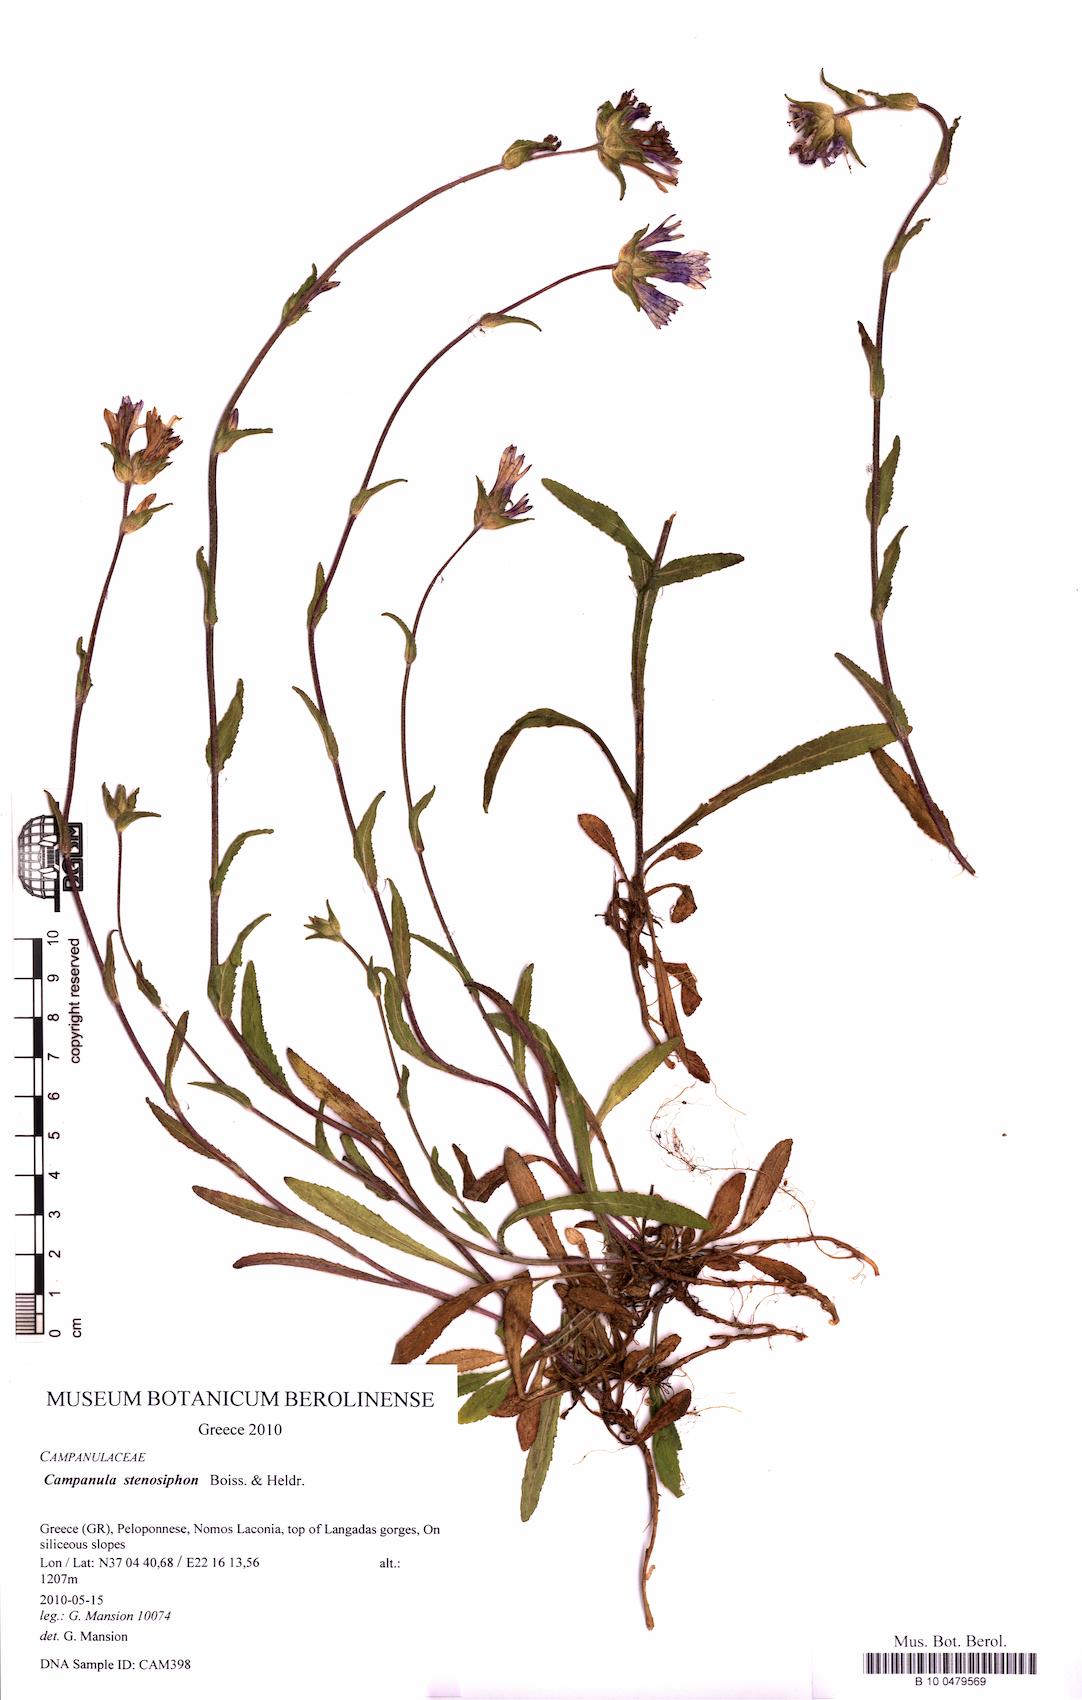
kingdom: Plantae
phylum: Tracheophyta
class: Magnoliopsida
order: Asterales
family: Campanulaceae
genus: Campanula
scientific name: Campanula stenosiphon
